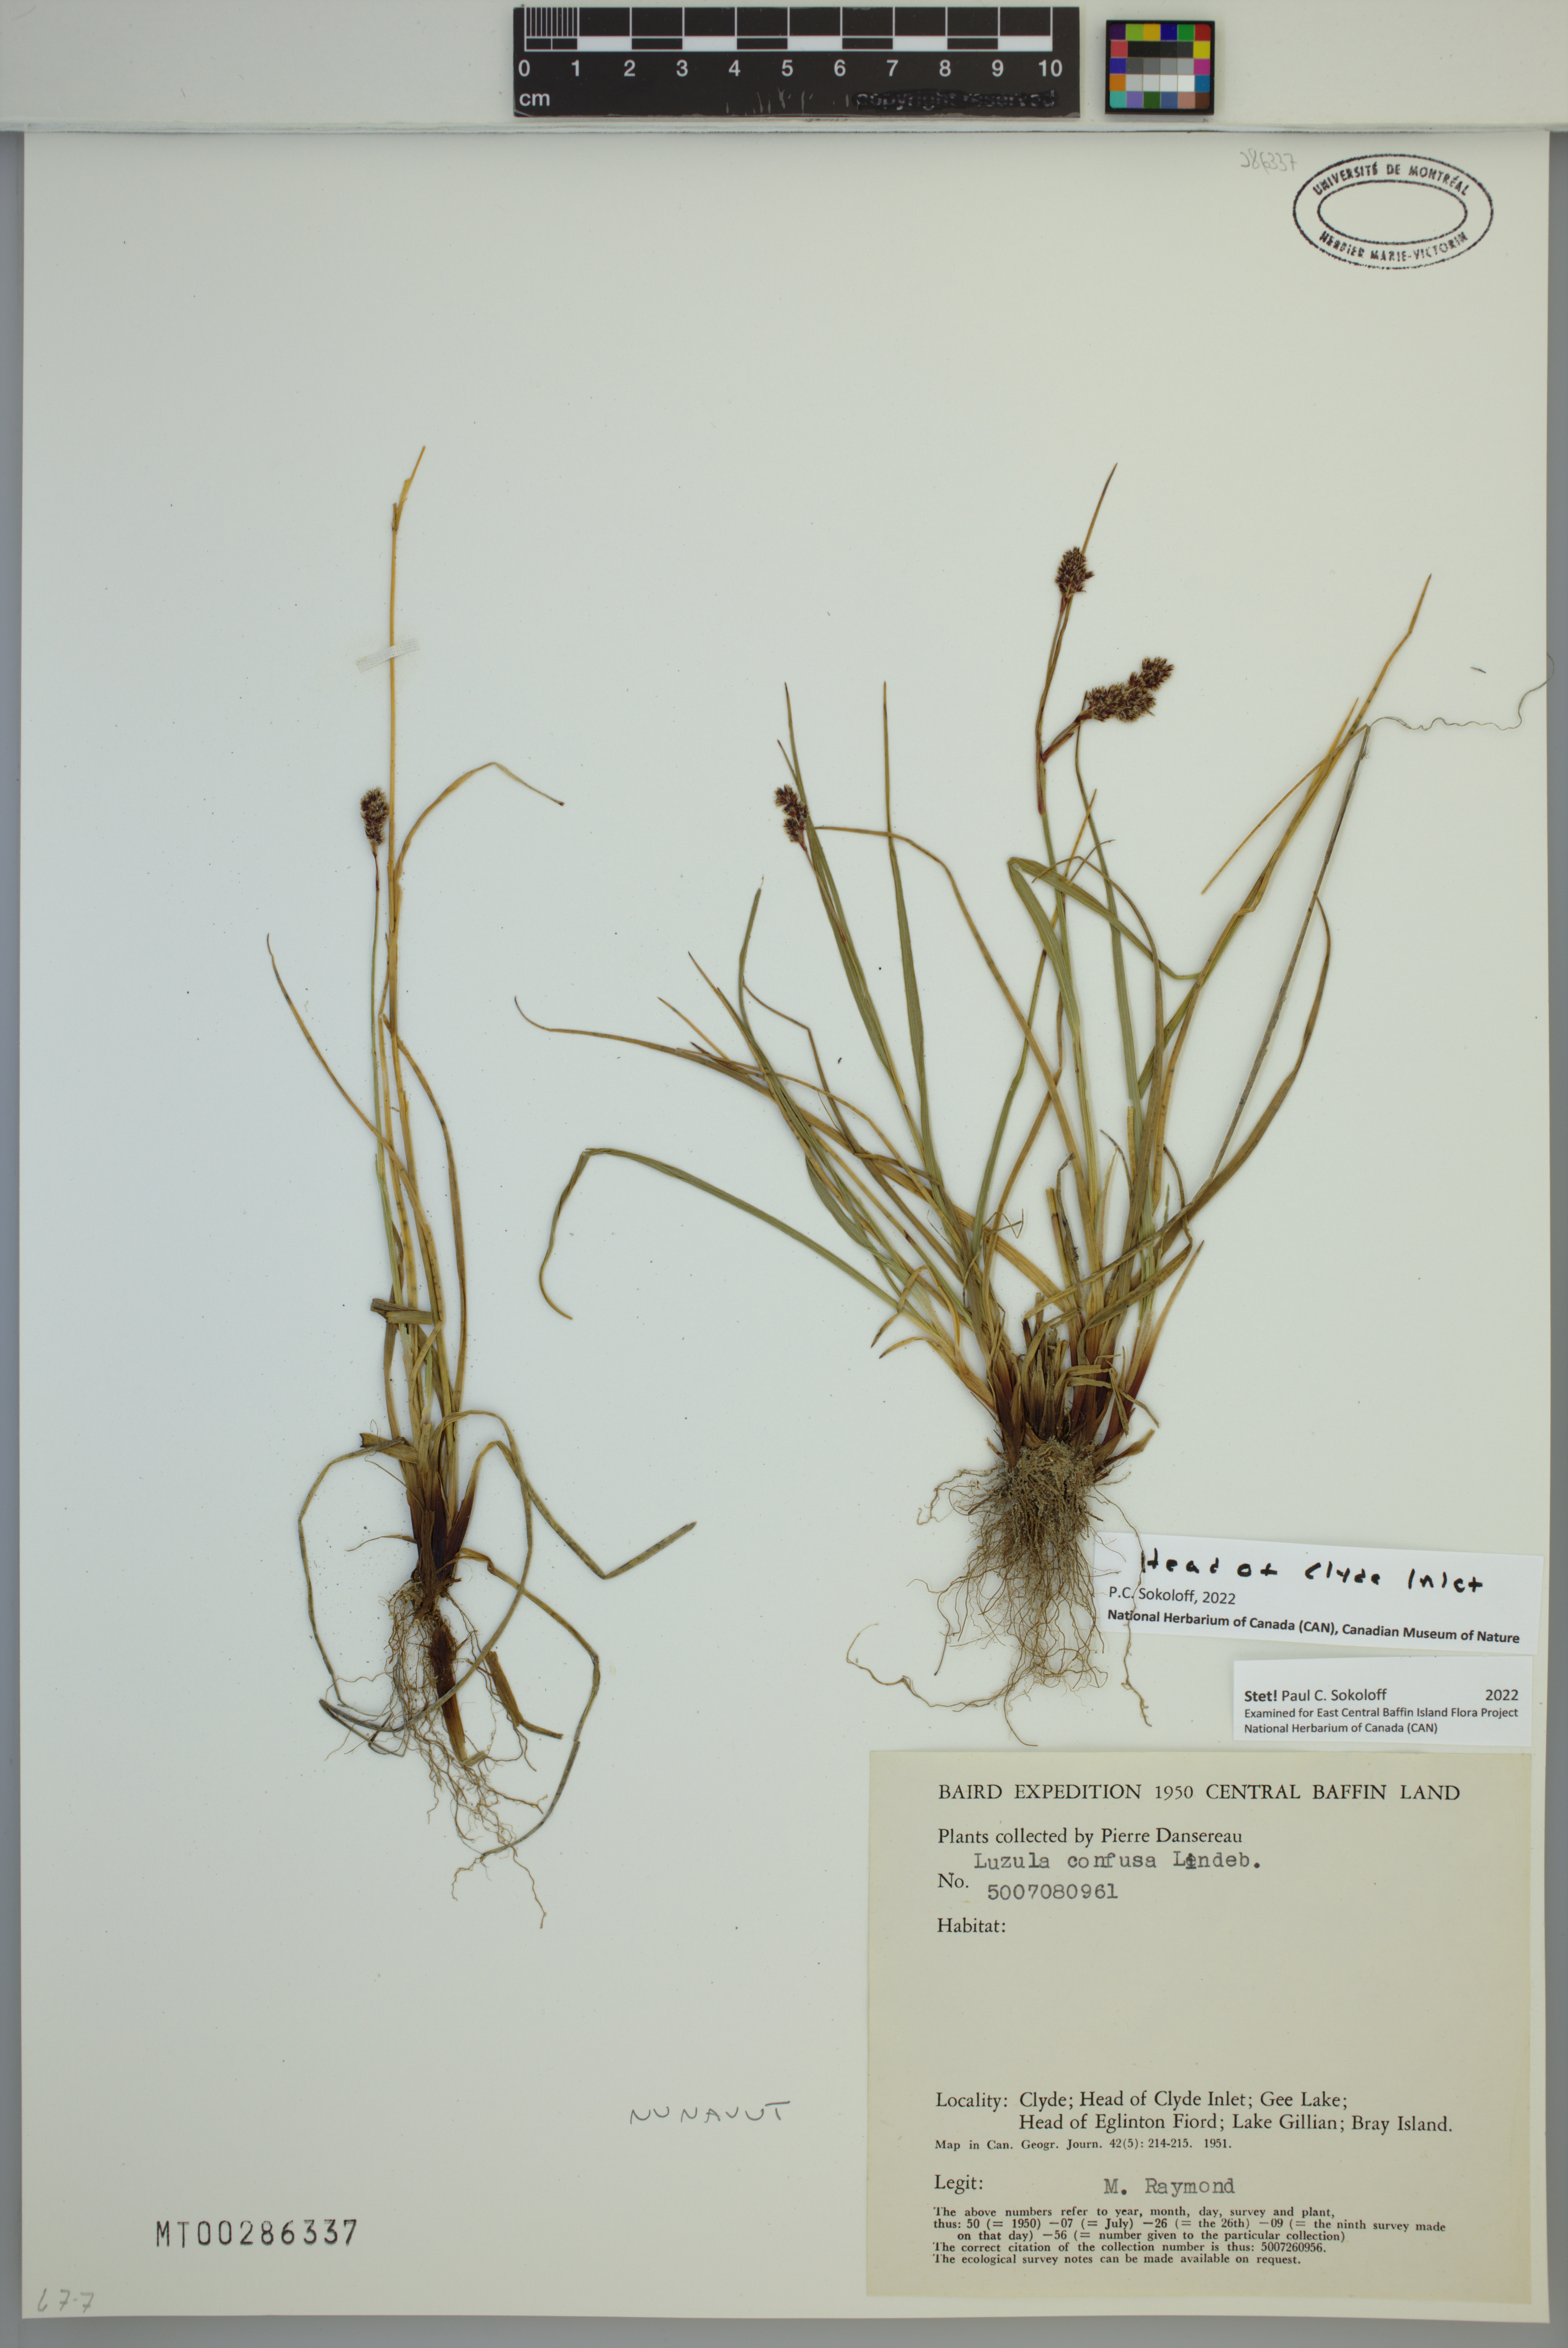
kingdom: Plantae
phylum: Tracheophyta
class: Liliopsida
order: Poales
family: Juncaceae
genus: Luzula
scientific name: Luzula confusa
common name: Northern wood rush
